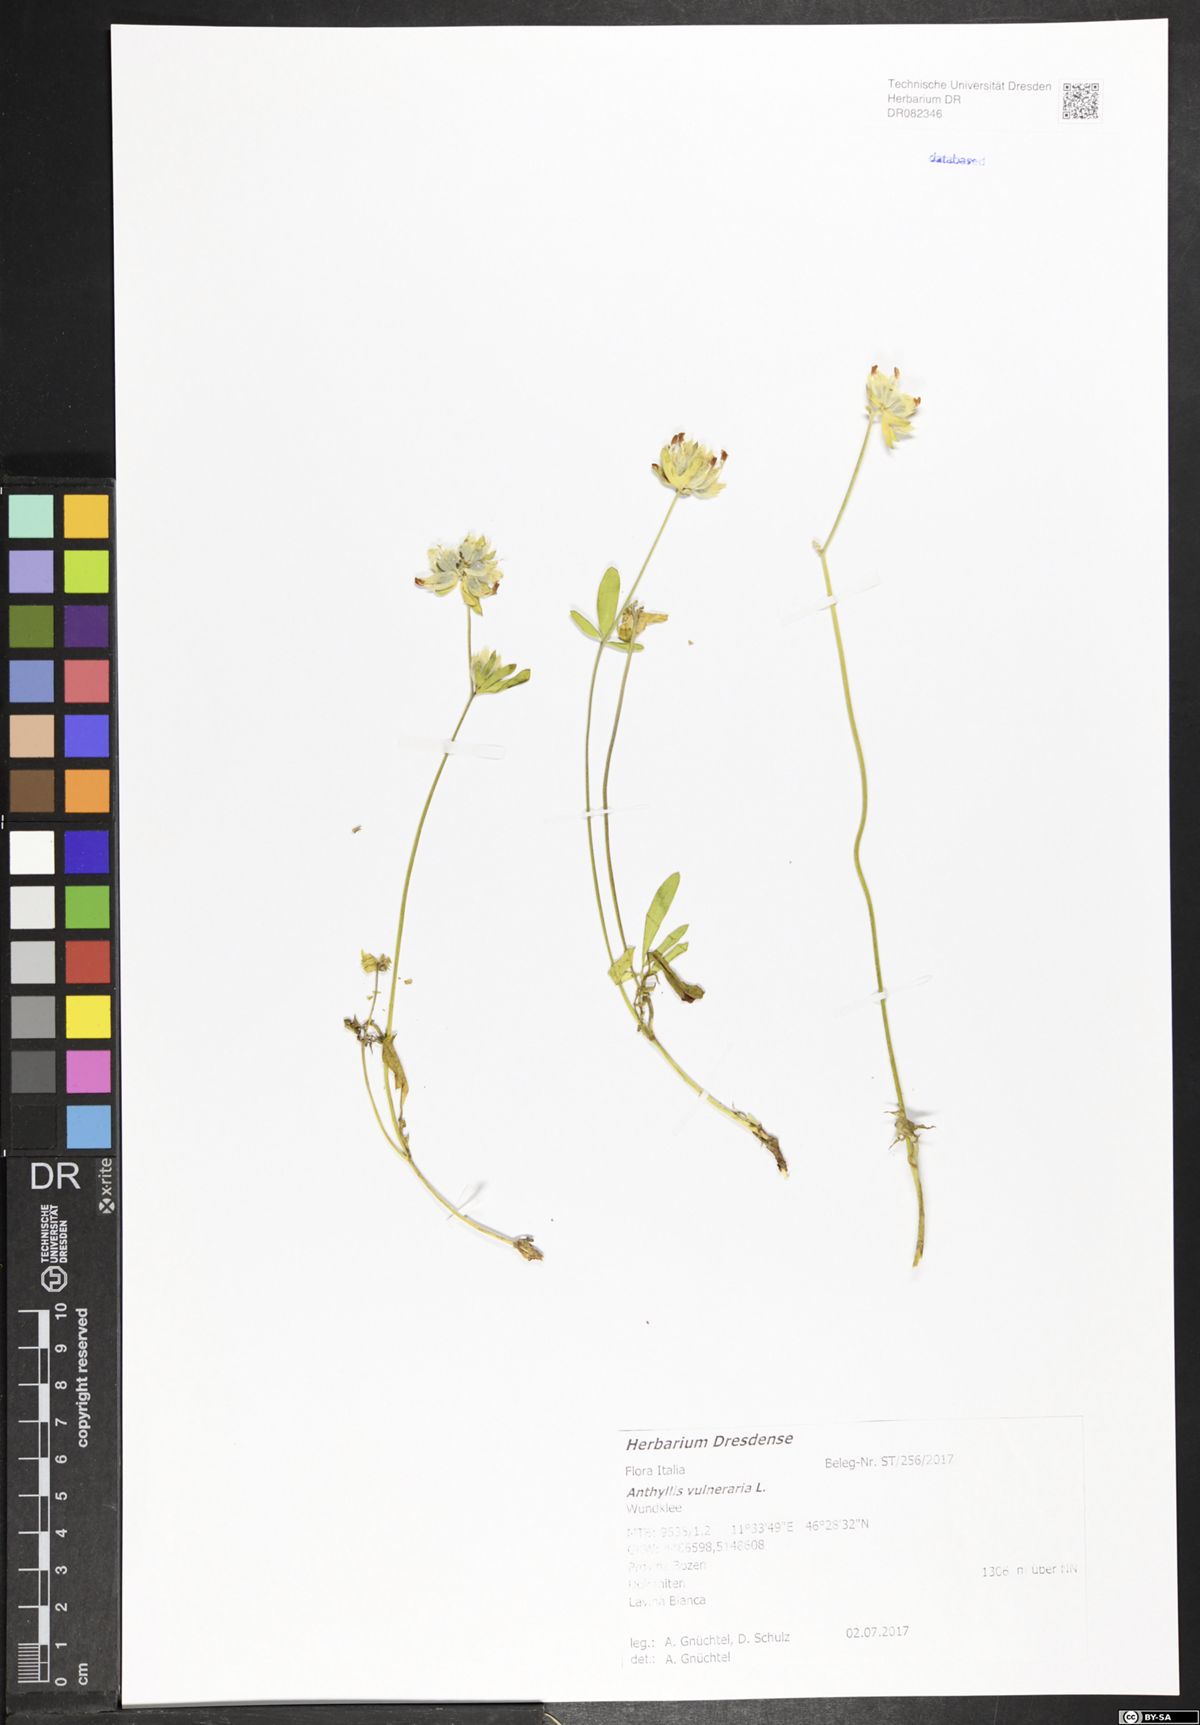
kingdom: Plantae
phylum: Tracheophyta
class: Magnoliopsida
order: Fabales
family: Fabaceae
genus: Anthyllis
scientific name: Anthyllis vulneraria
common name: Kidney vetch
